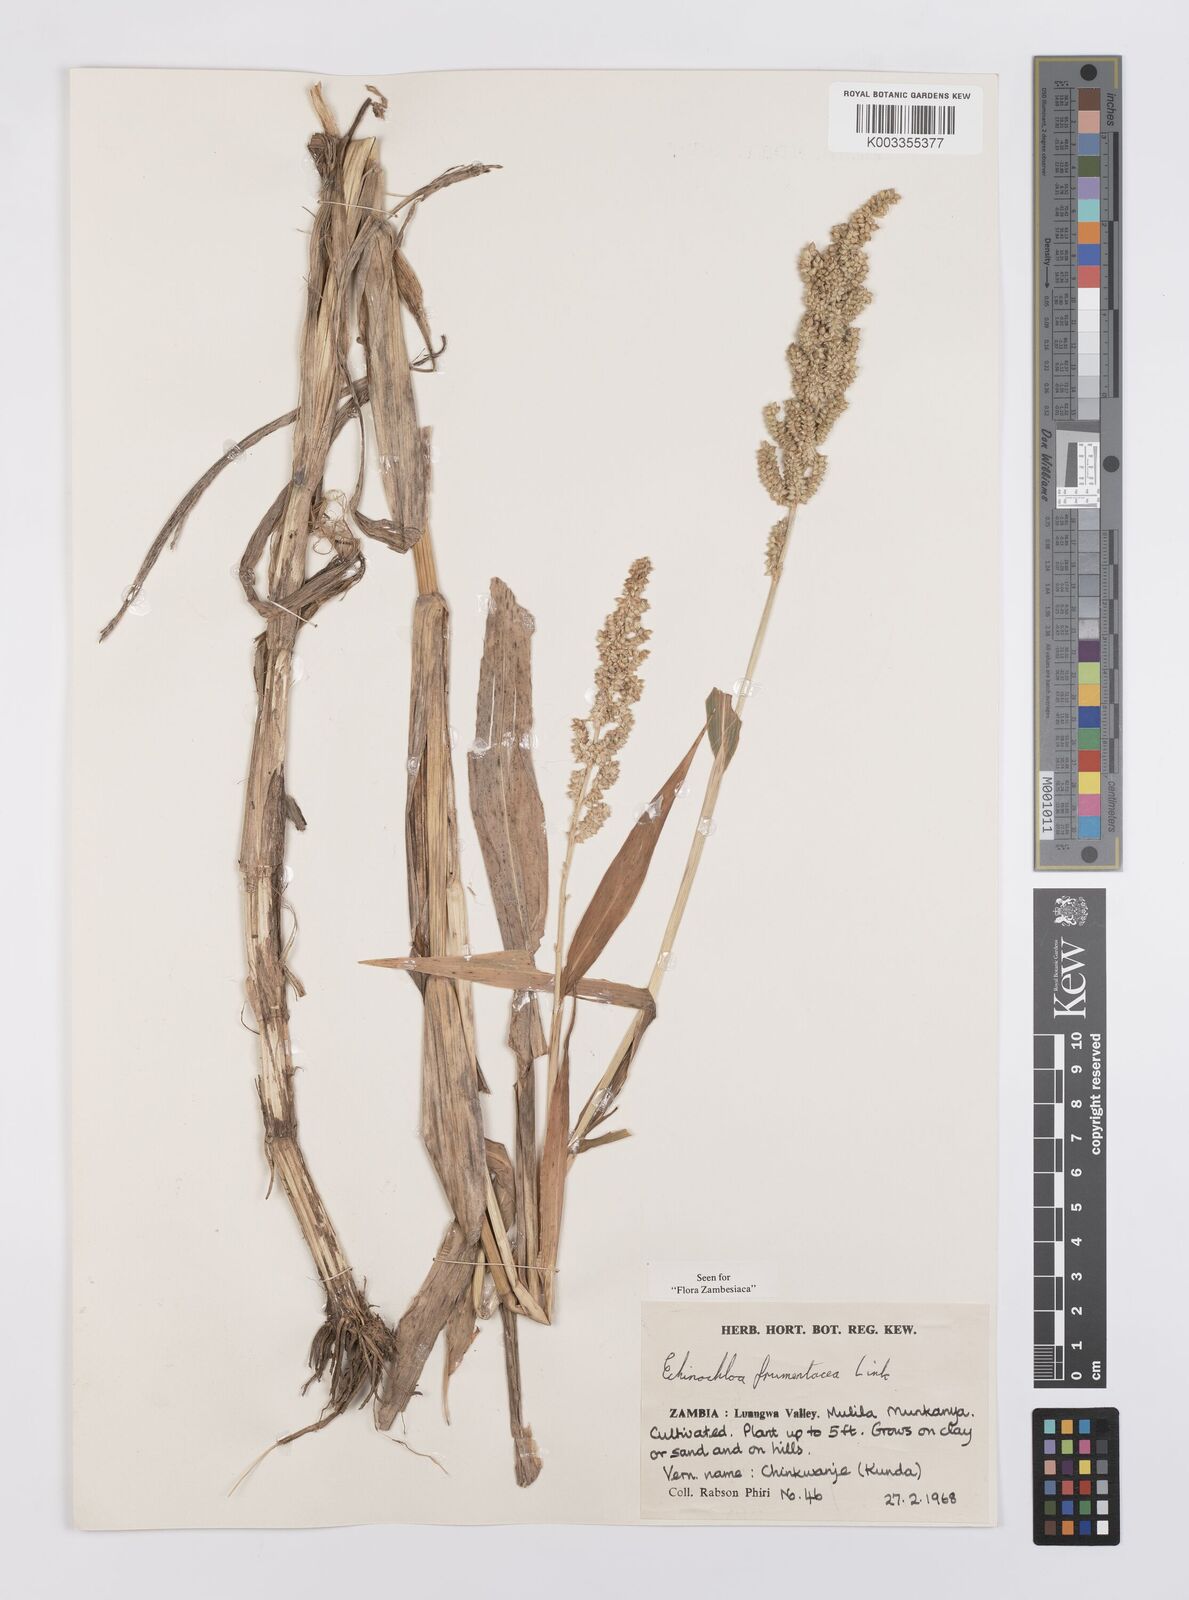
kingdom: Plantae
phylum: Tracheophyta
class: Liliopsida
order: Poales
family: Poaceae
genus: Echinochloa
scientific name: Echinochloa frumentacea
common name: Billion-dollar grass
